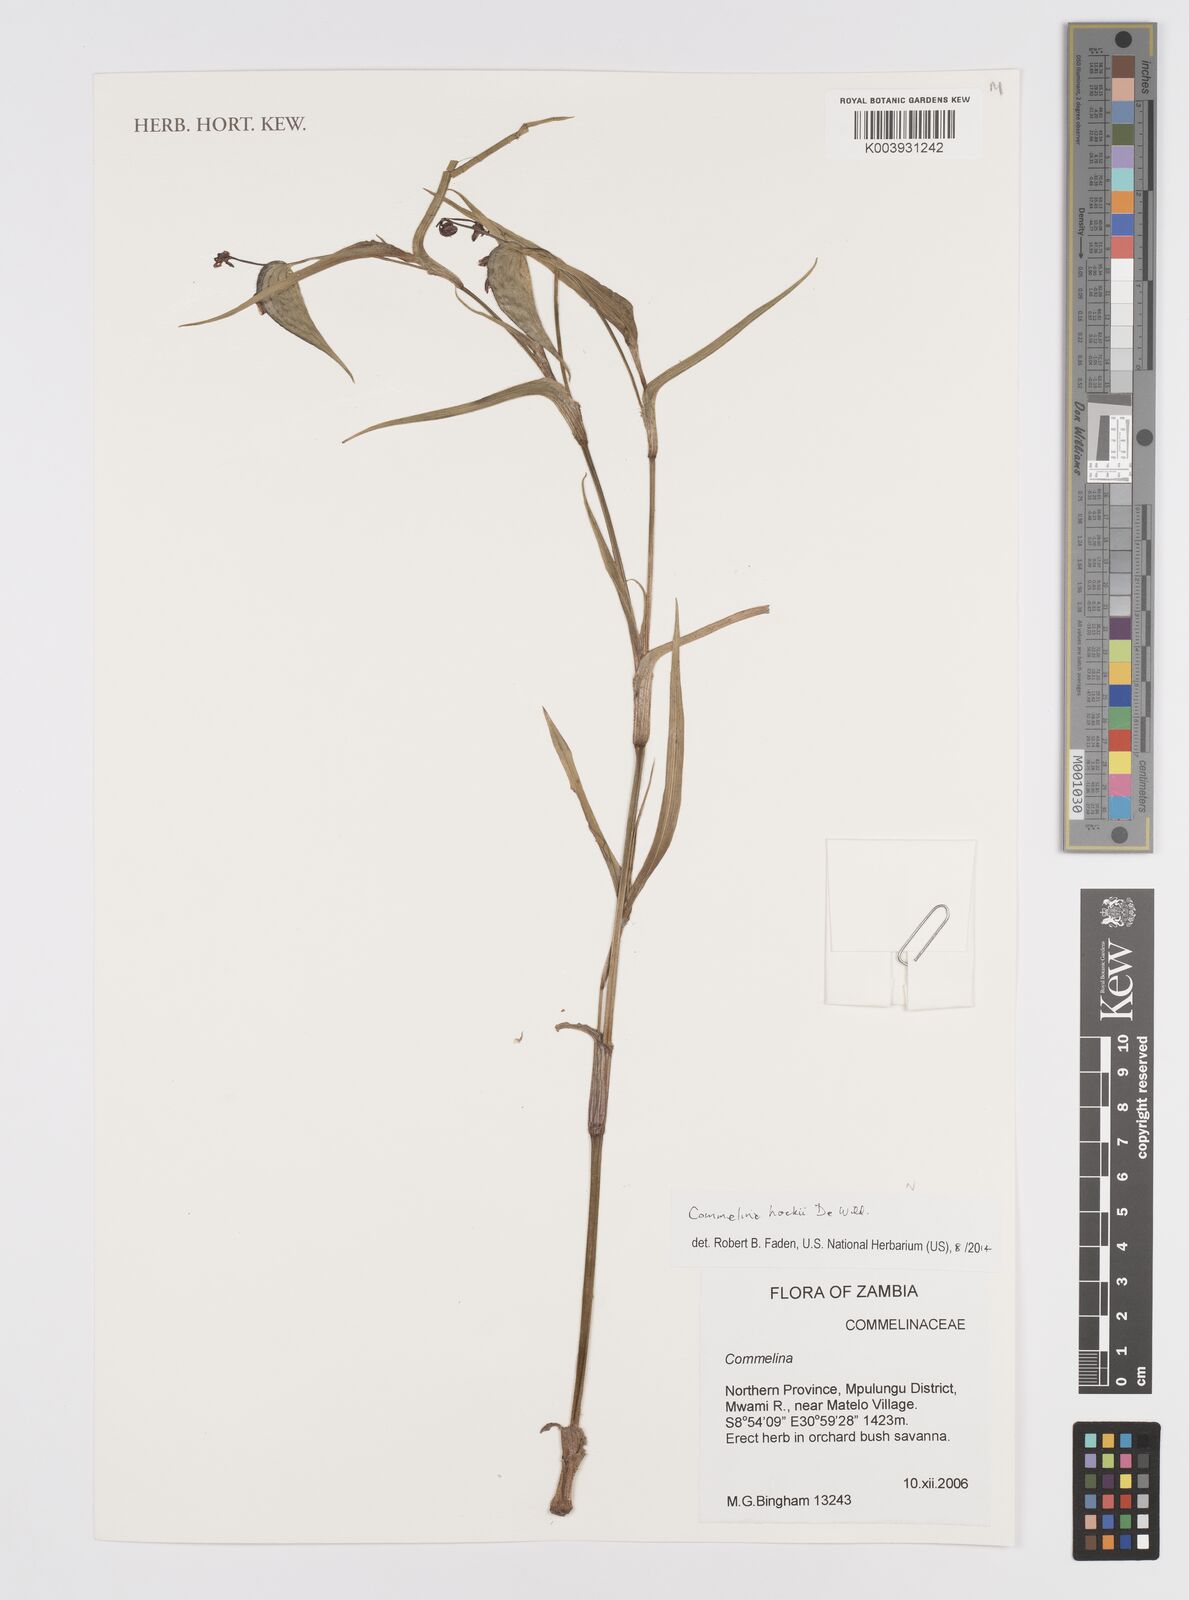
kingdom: Plantae
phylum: Tracheophyta
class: Liliopsida
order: Commelinales
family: Commelinaceae
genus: Commelina
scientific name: Commelina hockii
